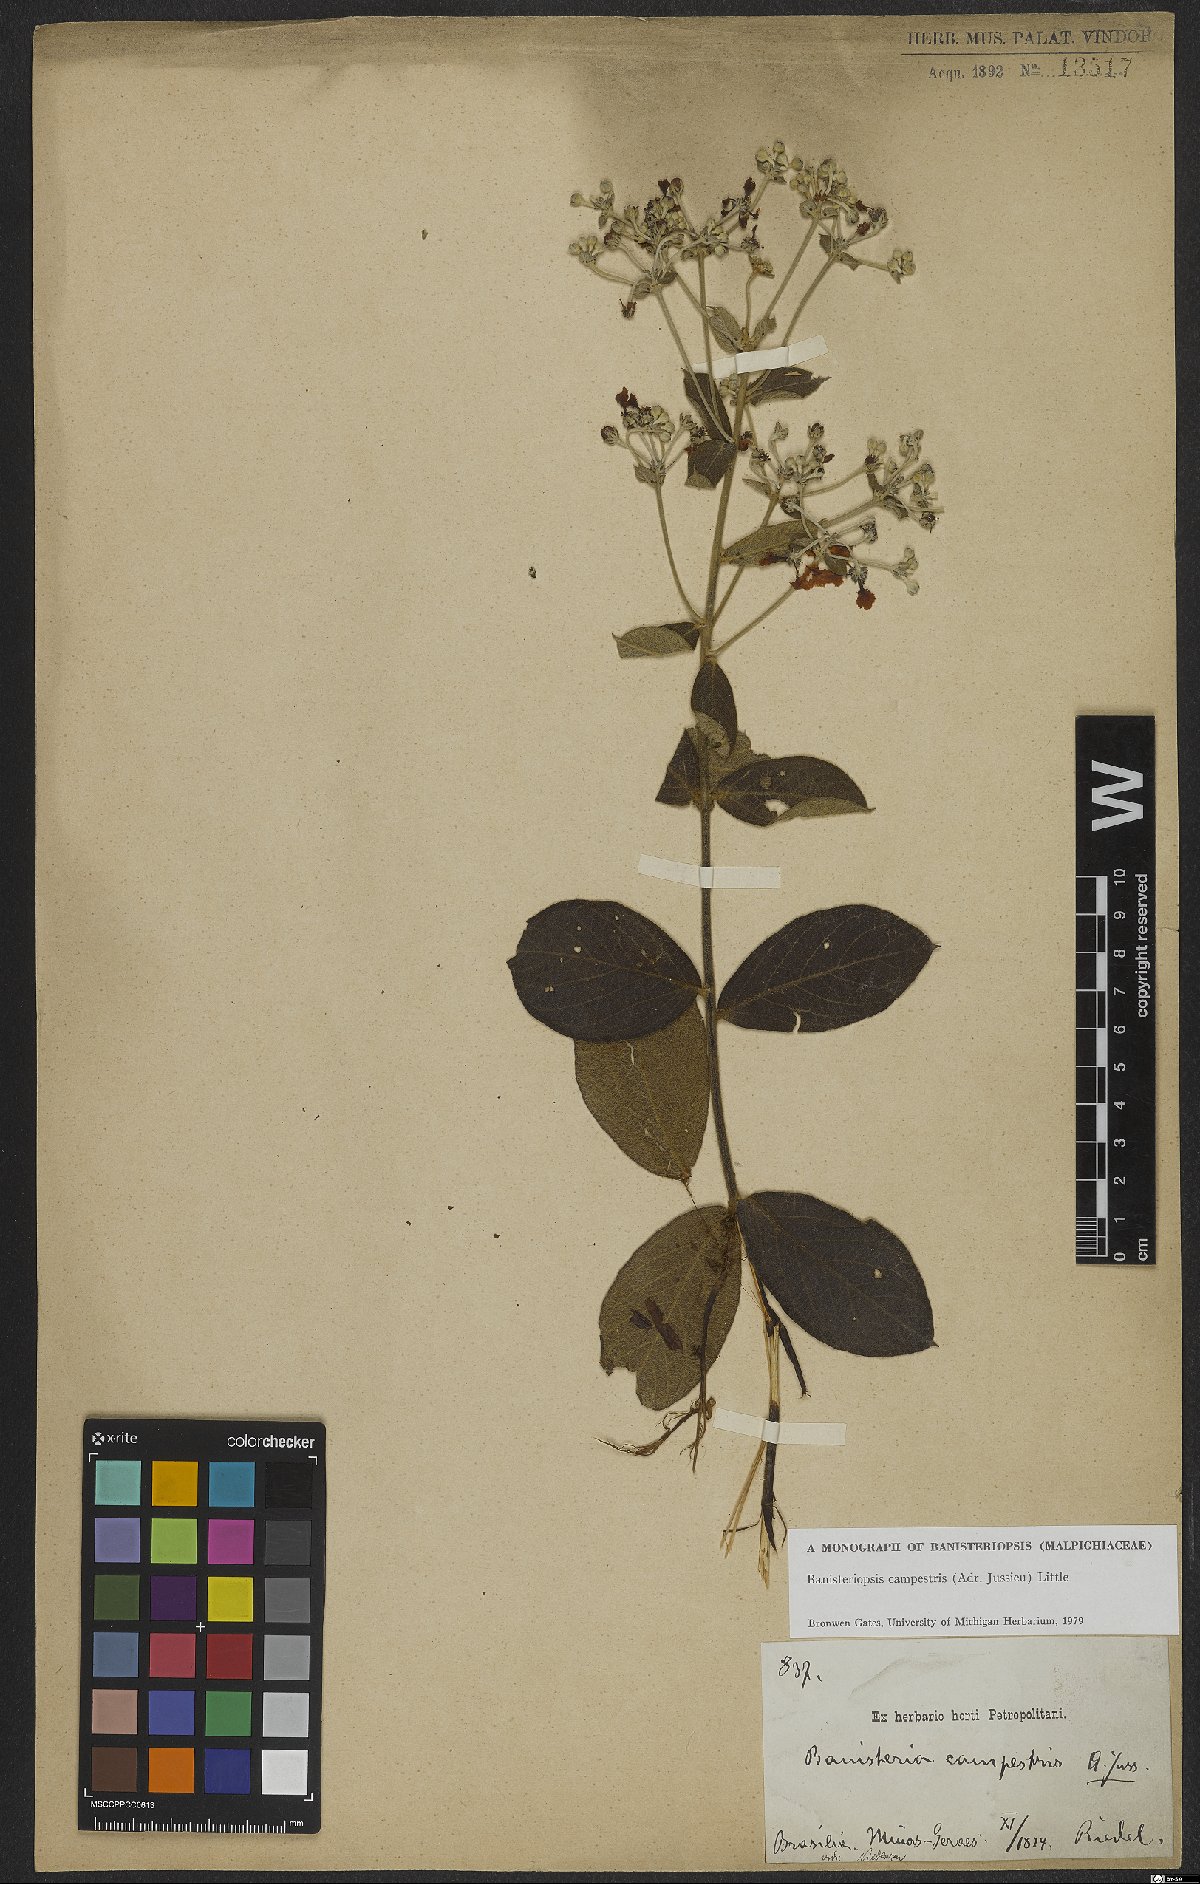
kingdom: Plantae
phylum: Tracheophyta
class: Magnoliopsida
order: Malpighiales
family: Malpighiaceae
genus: Banisteriopsis
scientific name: Banisteriopsis campestris
